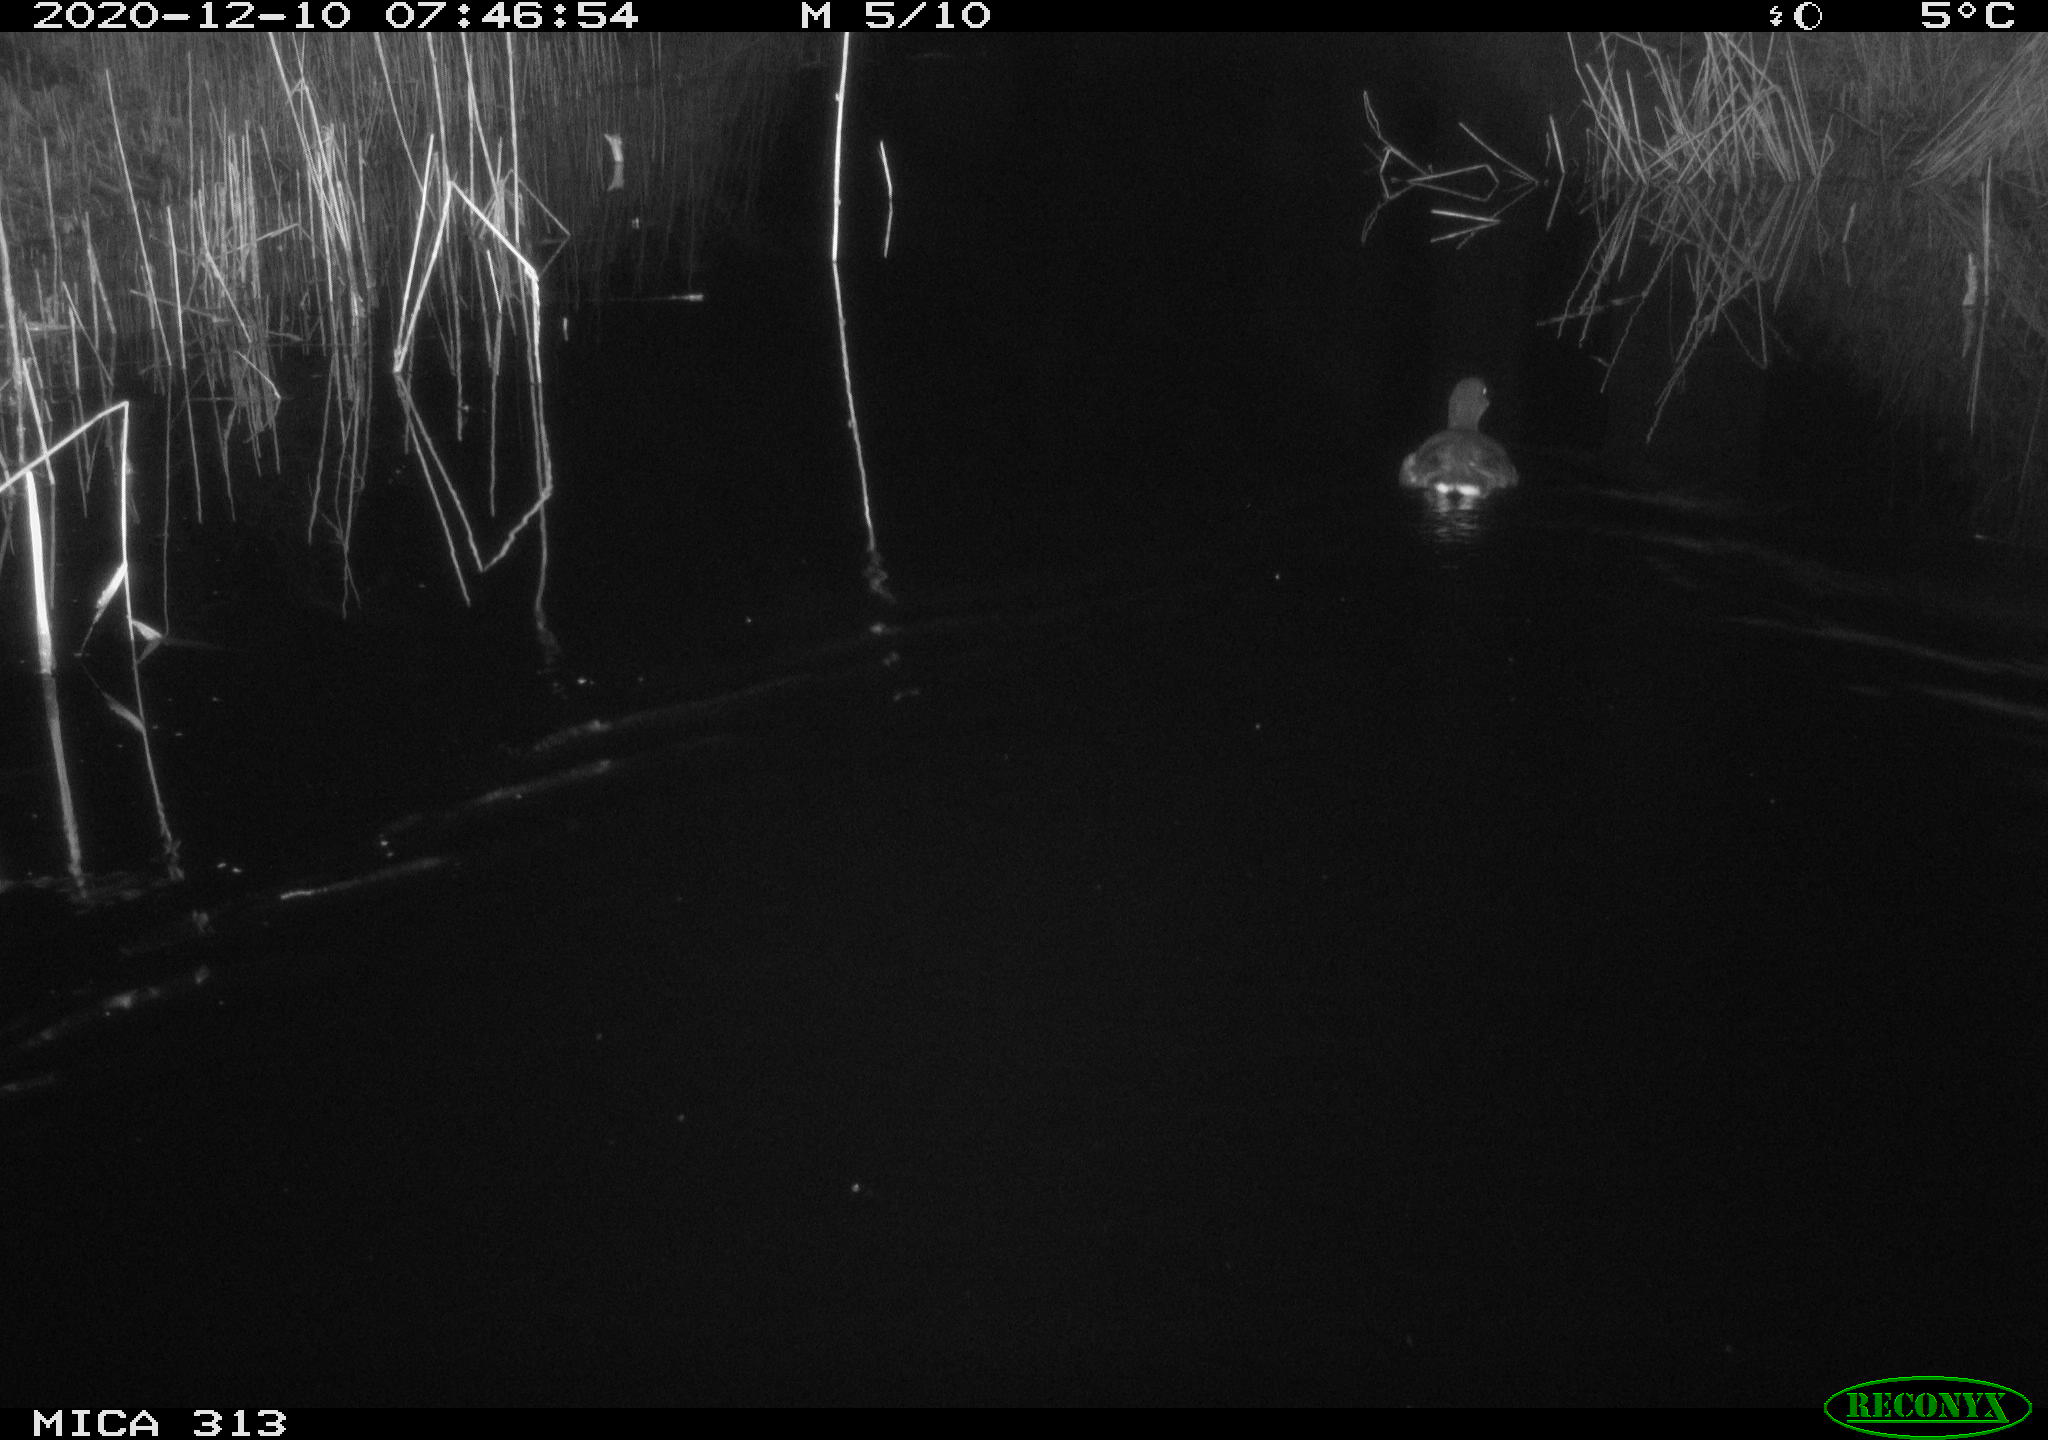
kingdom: Animalia
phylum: Chordata
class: Aves
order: Gruiformes
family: Rallidae
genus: Gallinula
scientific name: Gallinula chloropus
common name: Common moorhen
